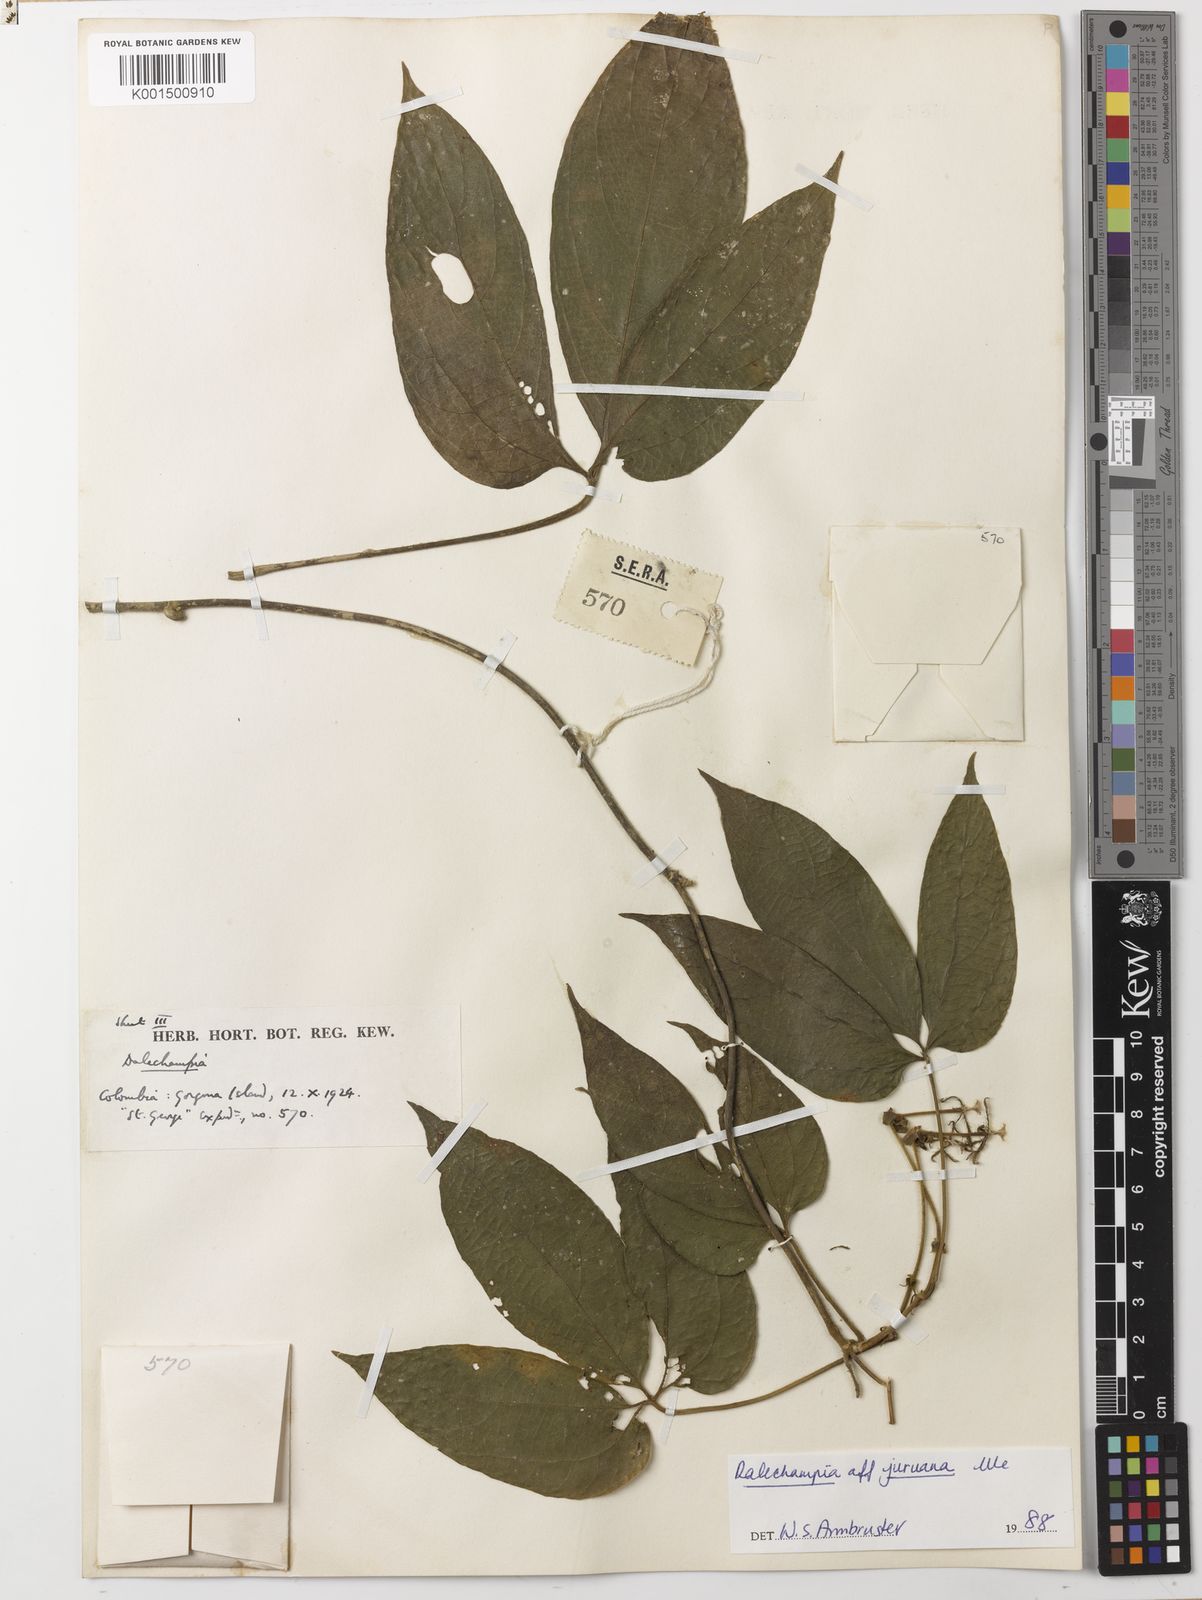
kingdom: Plantae
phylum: Tracheophyta
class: Magnoliopsida
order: Malpighiales
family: Euphorbiaceae
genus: Dalechampia
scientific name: Dalechampia juruana
